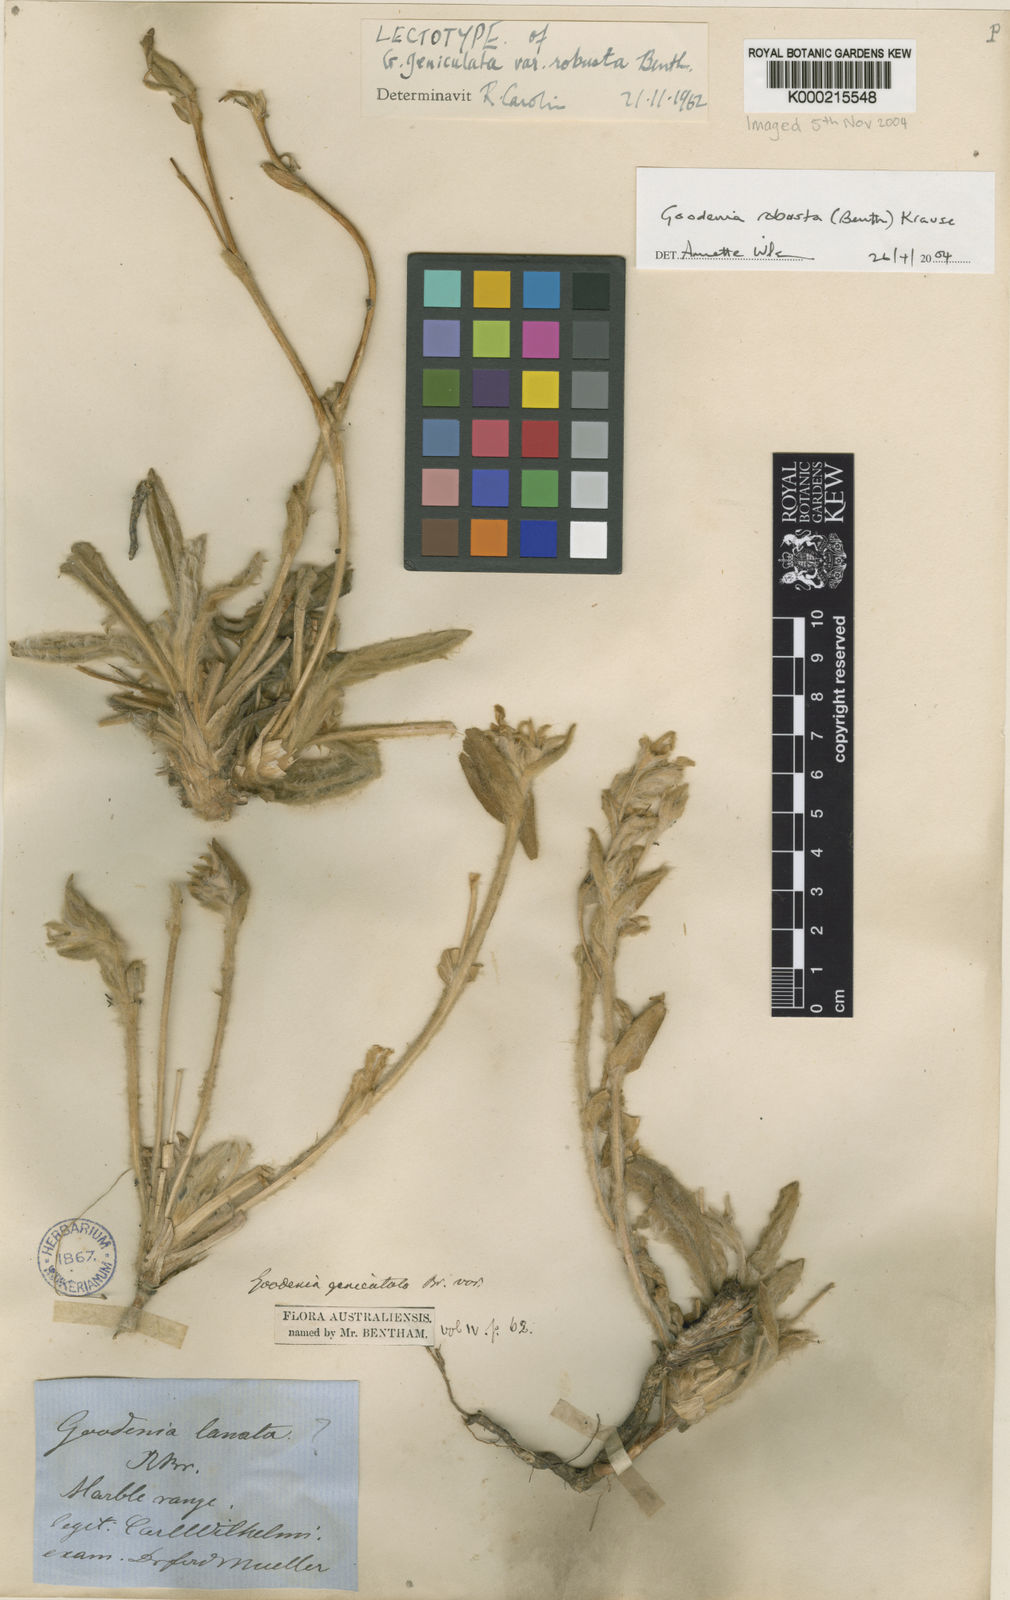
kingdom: Plantae
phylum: Tracheophyta
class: Magnoliopsida
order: Asterales
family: Goodeniaceae
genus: Goodenia
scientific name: Goodenia robusta
